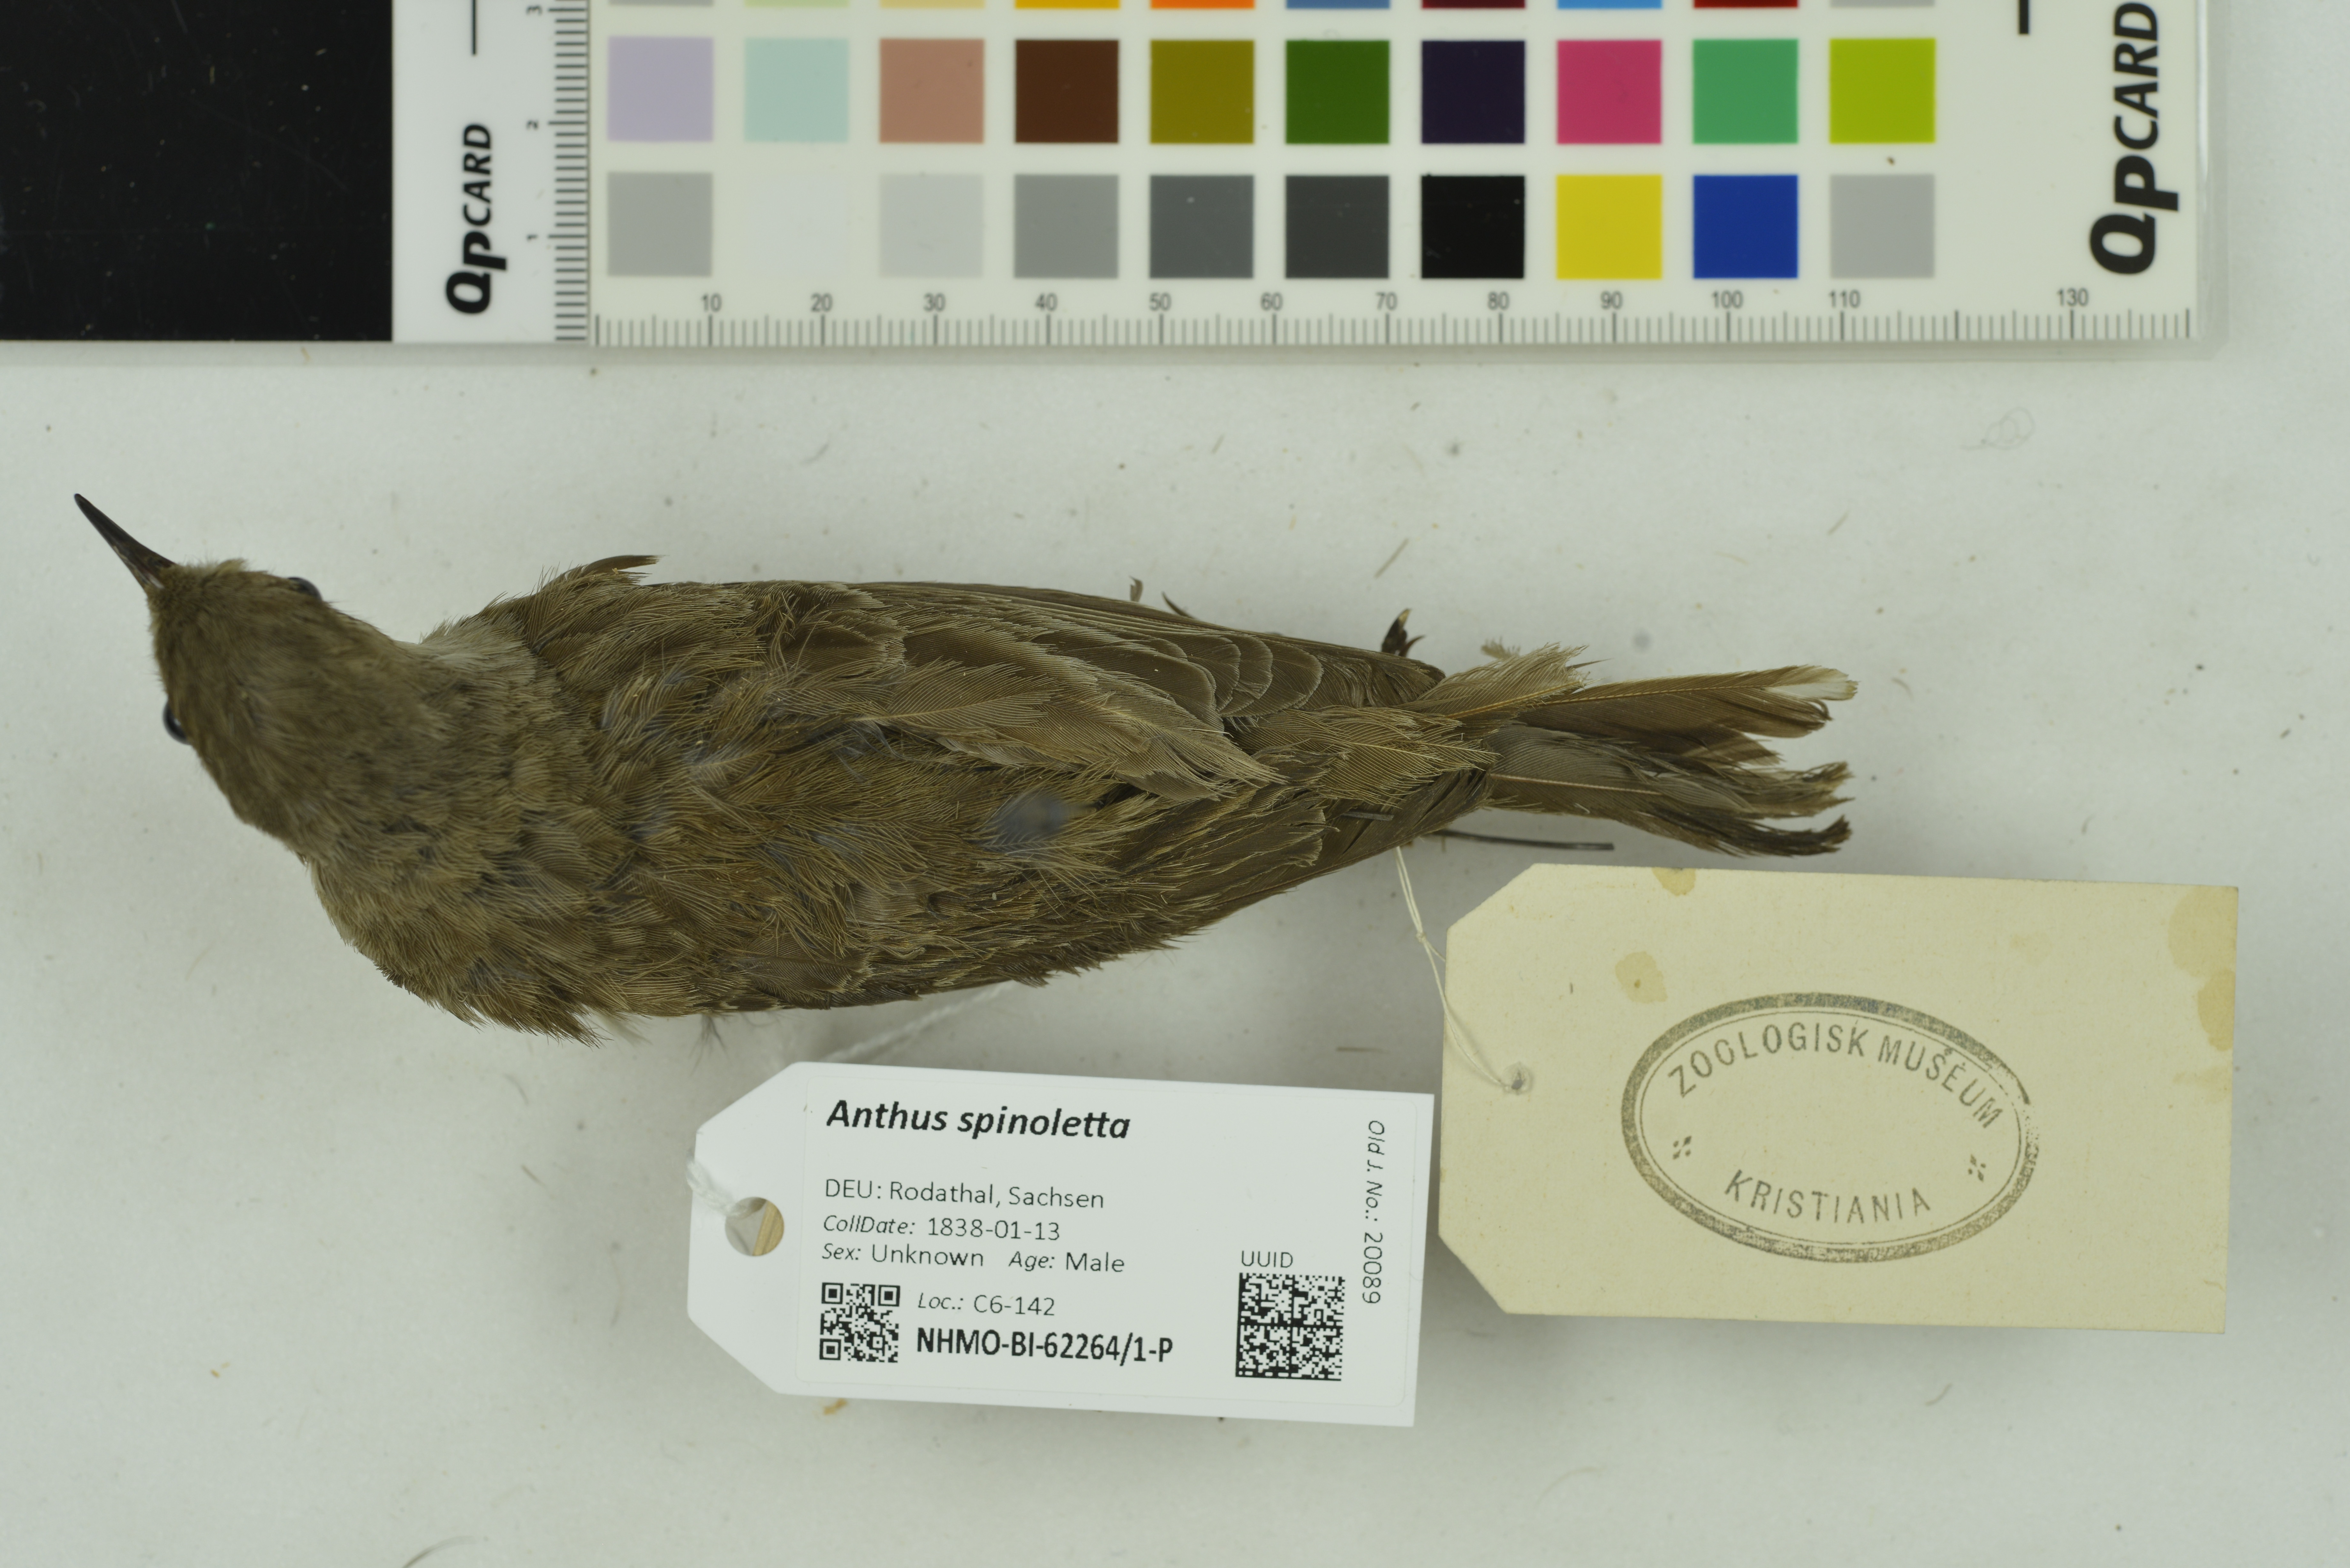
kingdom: Animalia
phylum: Chordata
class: Aves
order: Passeriformes
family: Motacillidae
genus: Anthus
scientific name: Anthus spinoletta
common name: Water pipit
